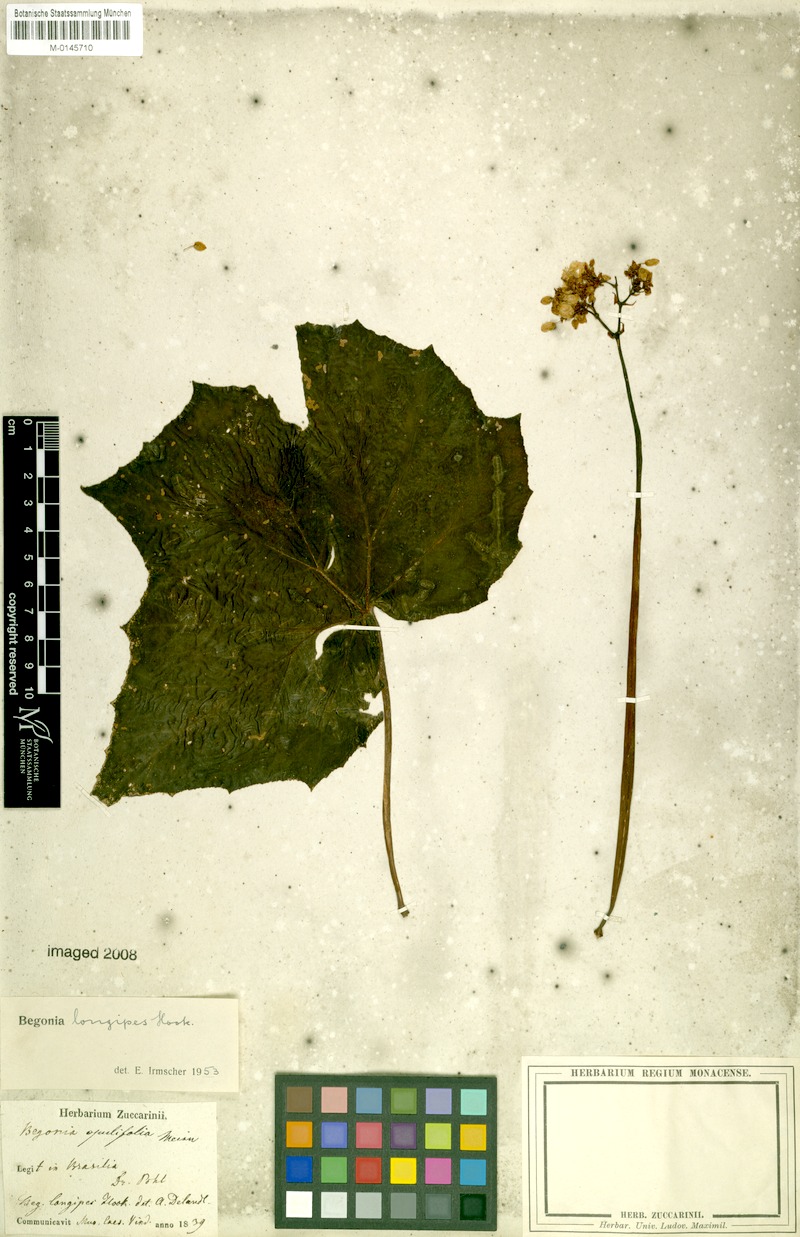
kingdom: Plantae
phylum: Tracheophyta
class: Magnoliopsida
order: Cucurbitales
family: Begoniaceae
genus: Begonia
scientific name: Begonia reniformis
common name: Grapeleaf begonia
